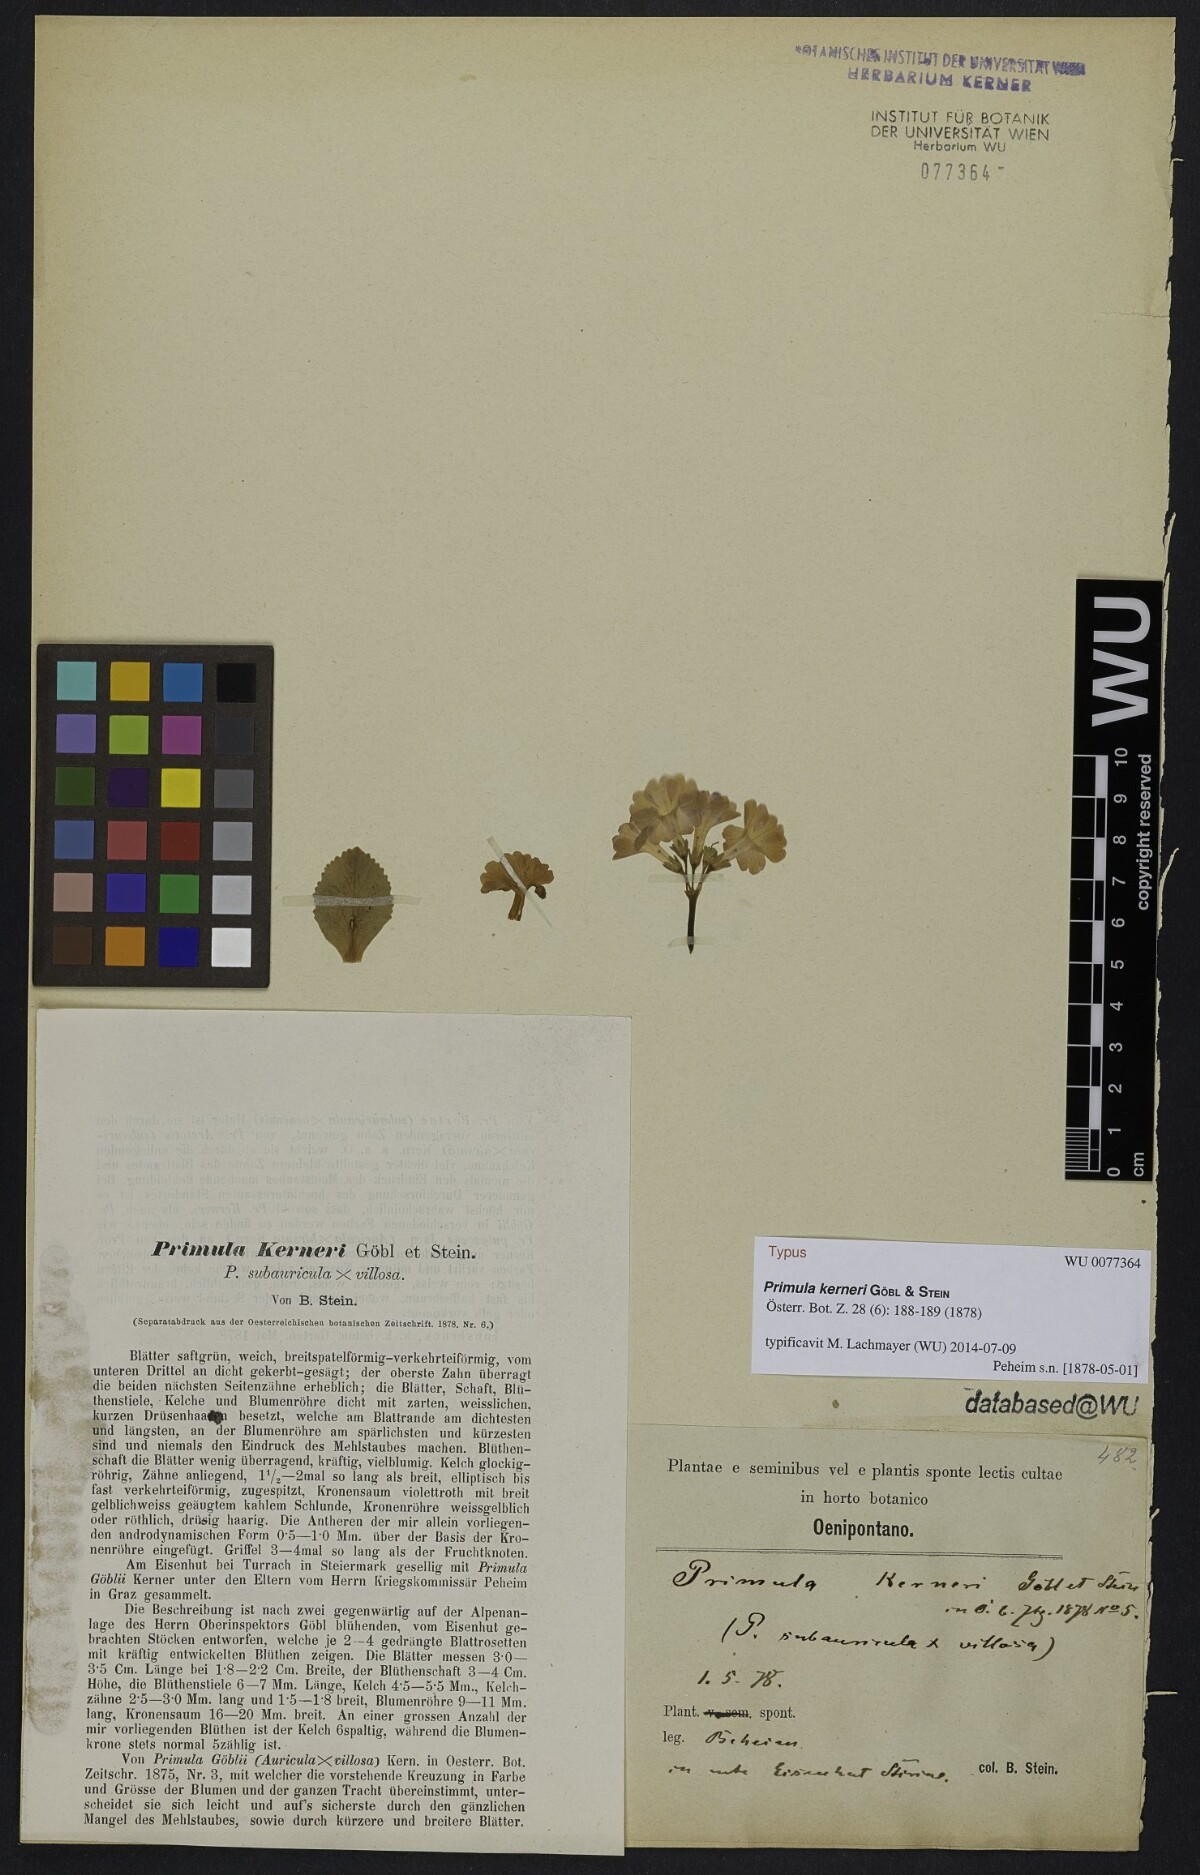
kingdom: Plantae
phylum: Tracheophyta
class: Magnoliopsida
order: Ericales
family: Primulaceae
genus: Primula
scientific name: Primula goebelii
